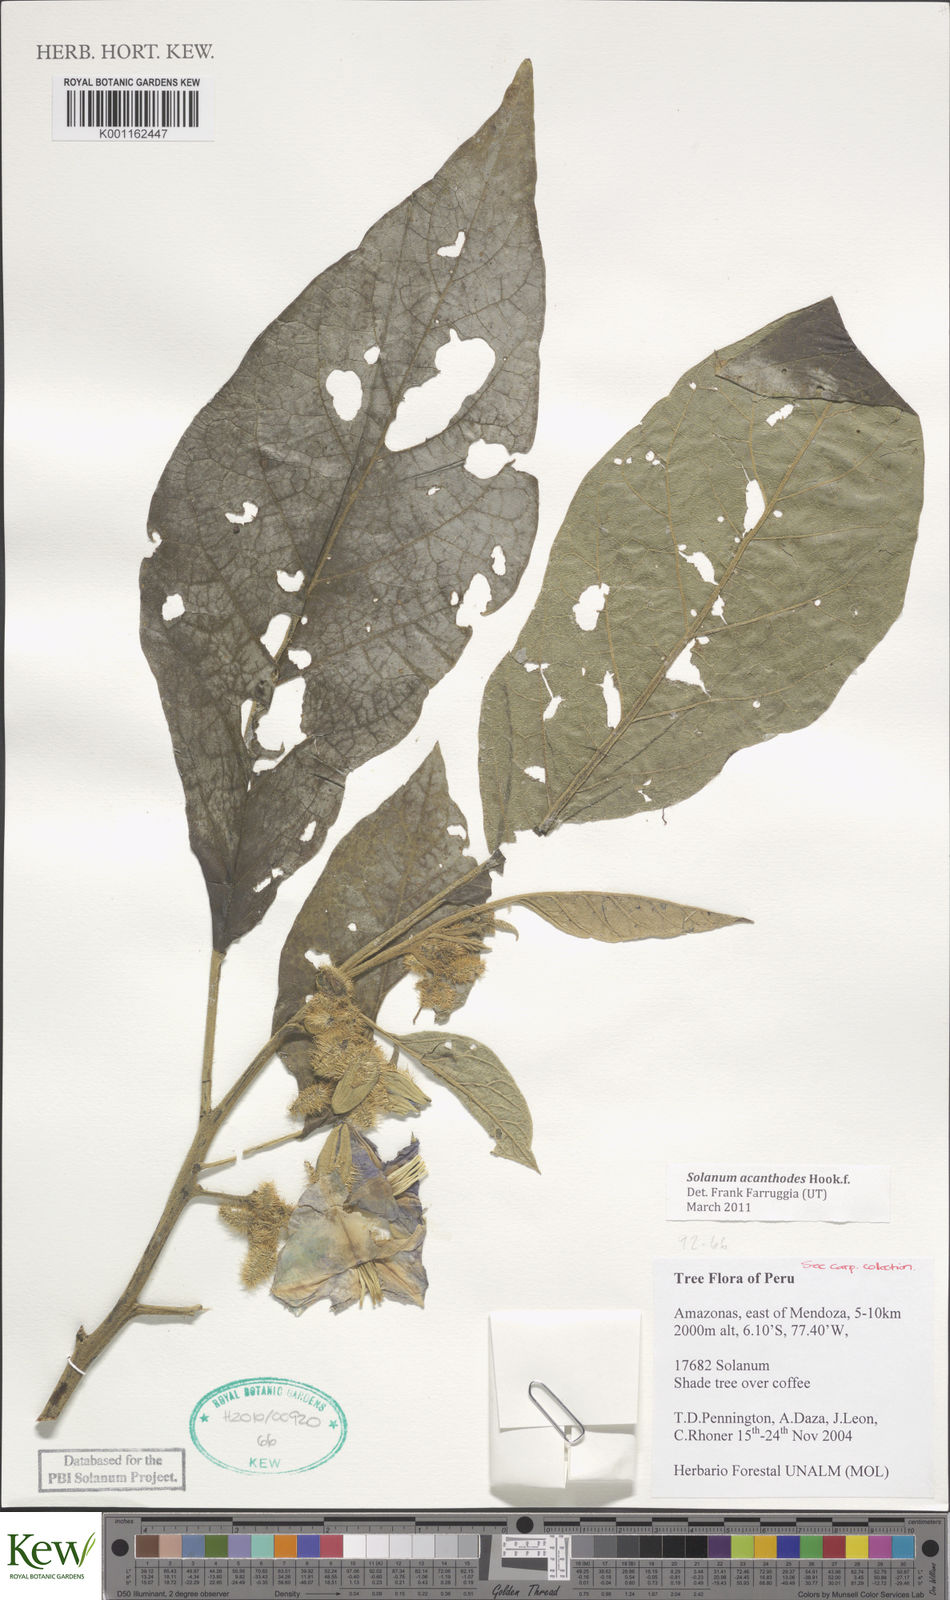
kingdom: Plantae
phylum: Tracheophyta
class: Magnoliopsida
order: Solanales
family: Solanaceae
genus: Solanum
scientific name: Solanum vanheurckii
